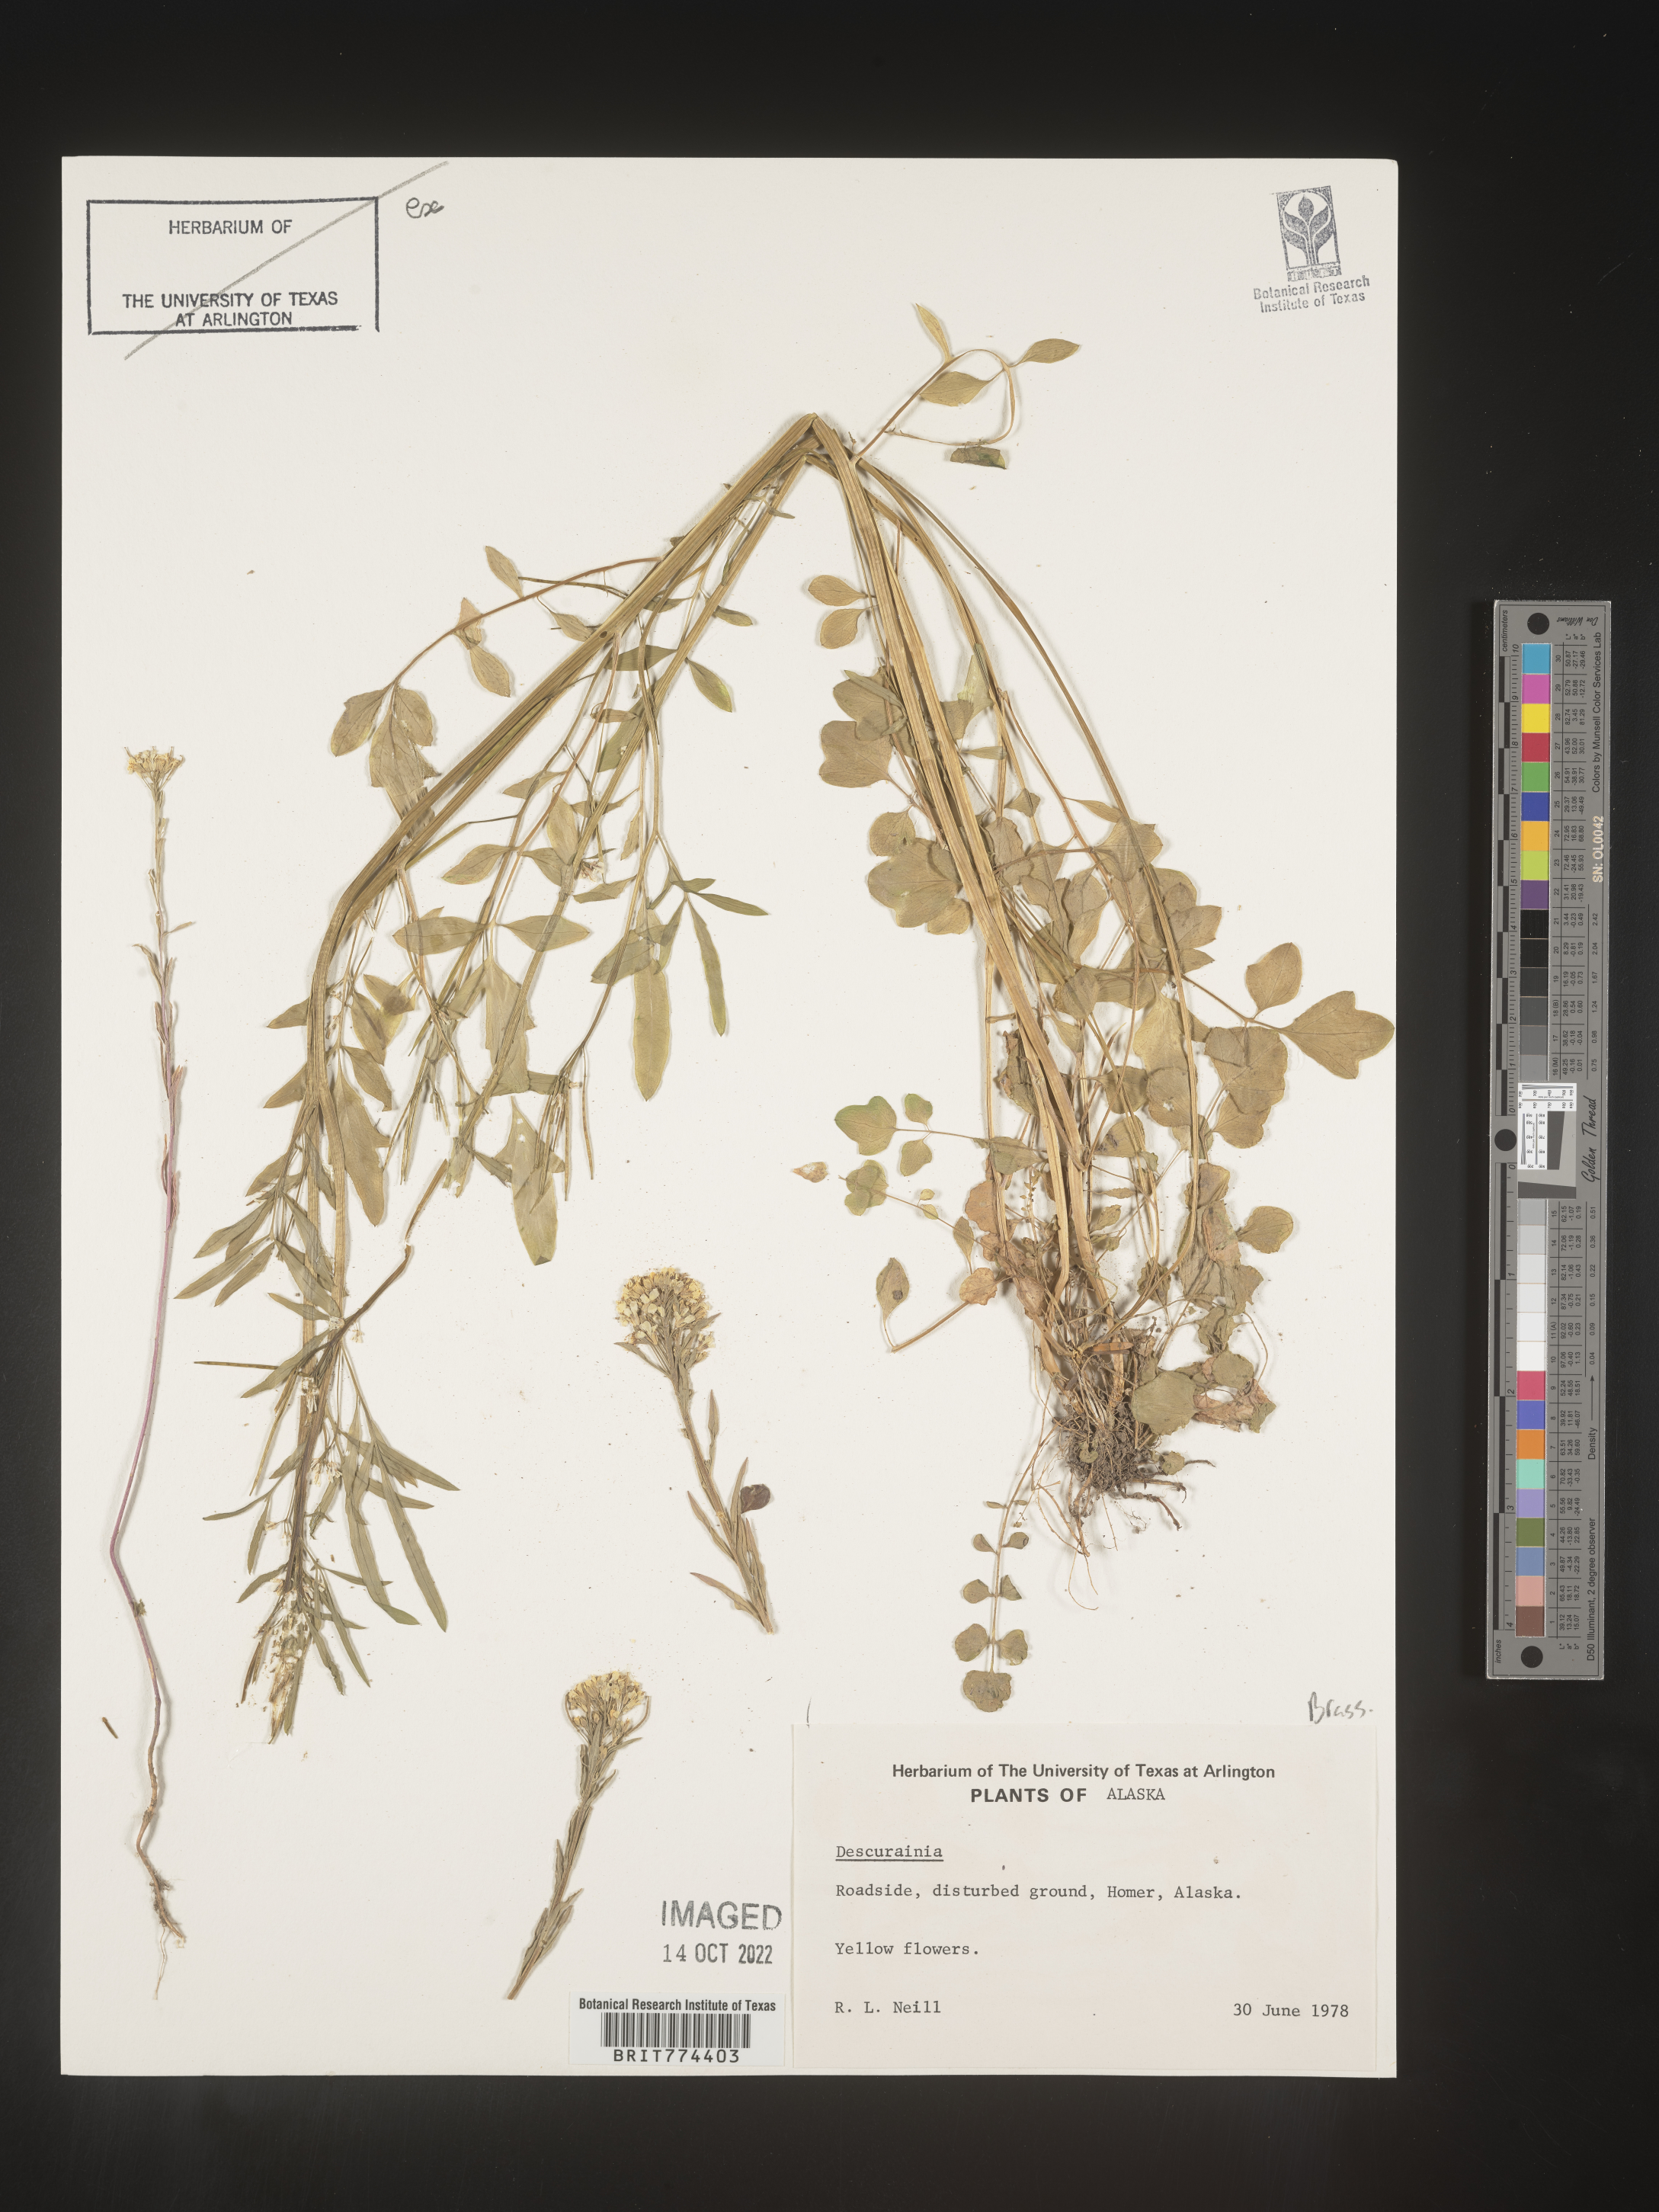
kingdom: Plantae
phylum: Tracheophyta
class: Magnoliopsida
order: Brassicales
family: Brassicaceae
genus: Descurainia
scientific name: Descurainia
